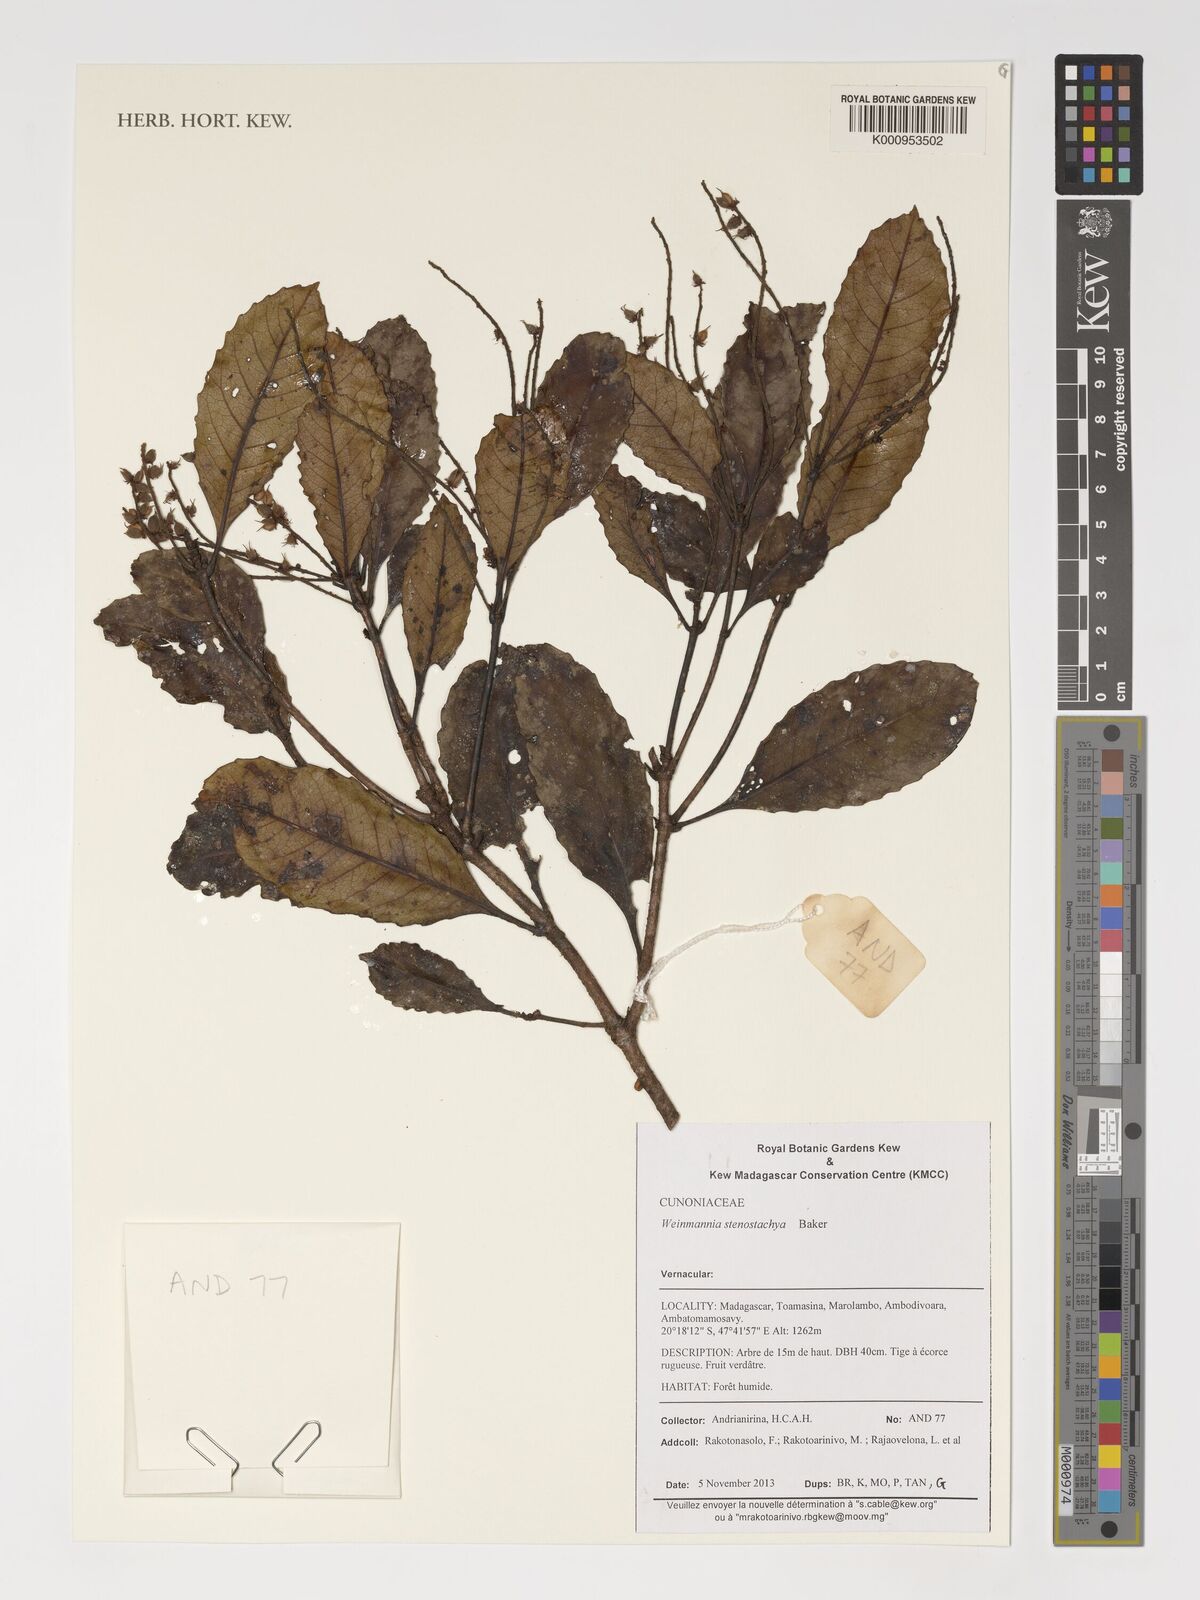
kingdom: Plantae
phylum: Tracheophyta
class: Magnoliopsida
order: Oxalidales
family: Cunoniaceae
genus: Pterophylla
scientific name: Pterophylla stenostachya
